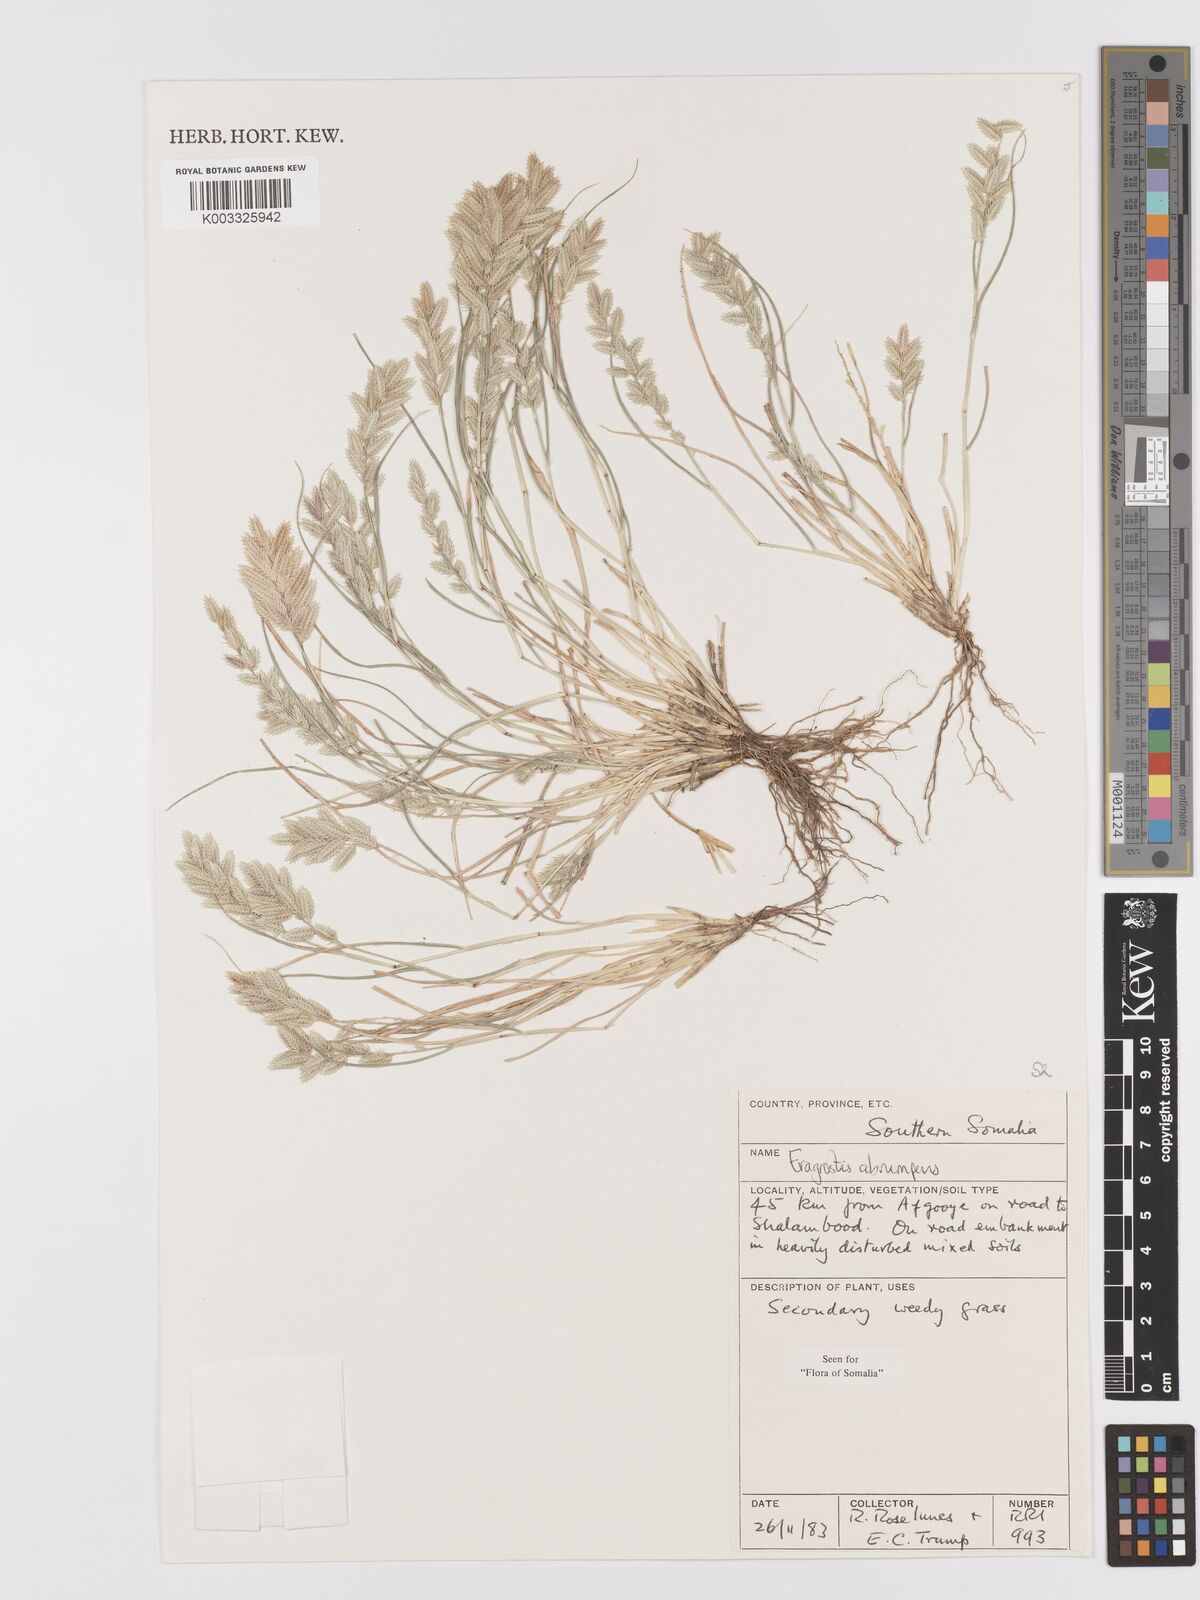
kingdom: Plantae
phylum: Tracheophyta
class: Liliopsida
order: Poales
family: Poaceae
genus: Eragrostis
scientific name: Eragrostis sennii
